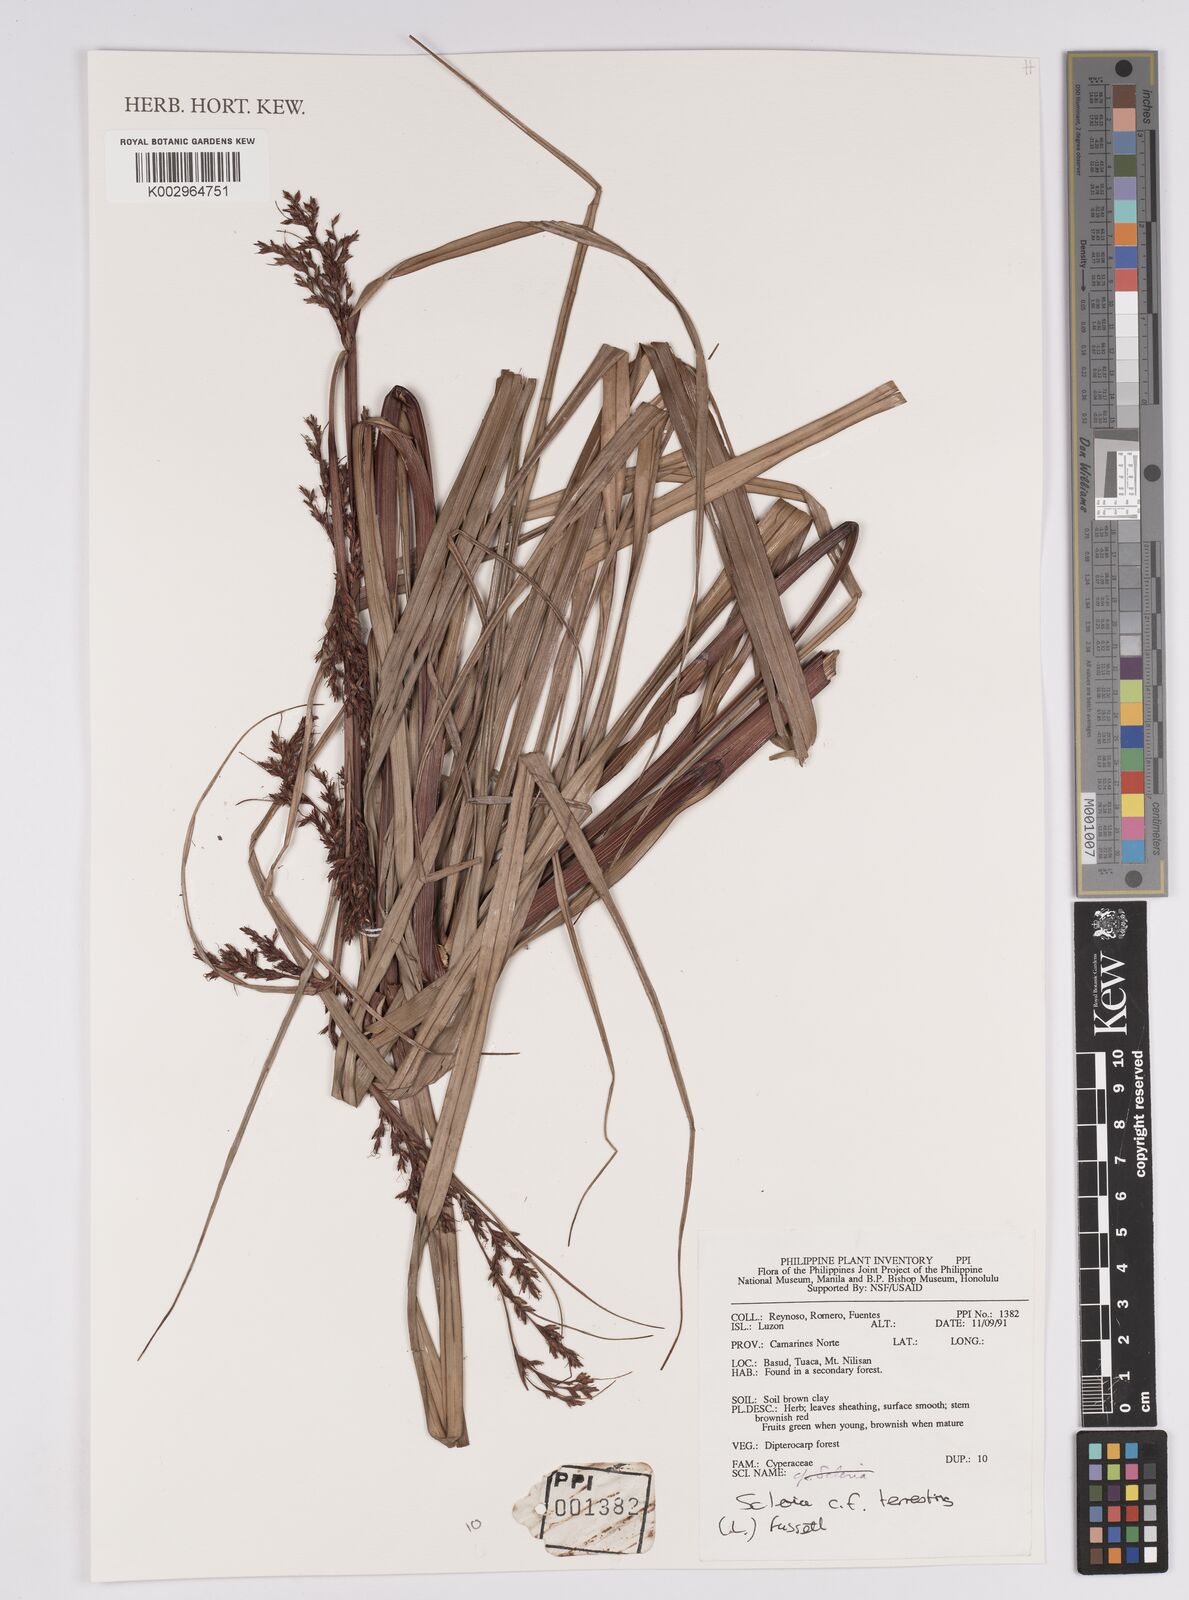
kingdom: Plantae
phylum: Tracheophyta
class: Liliopsida
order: Poales
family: Cyperaceae
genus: Scleria
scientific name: Scleria ciliaris
